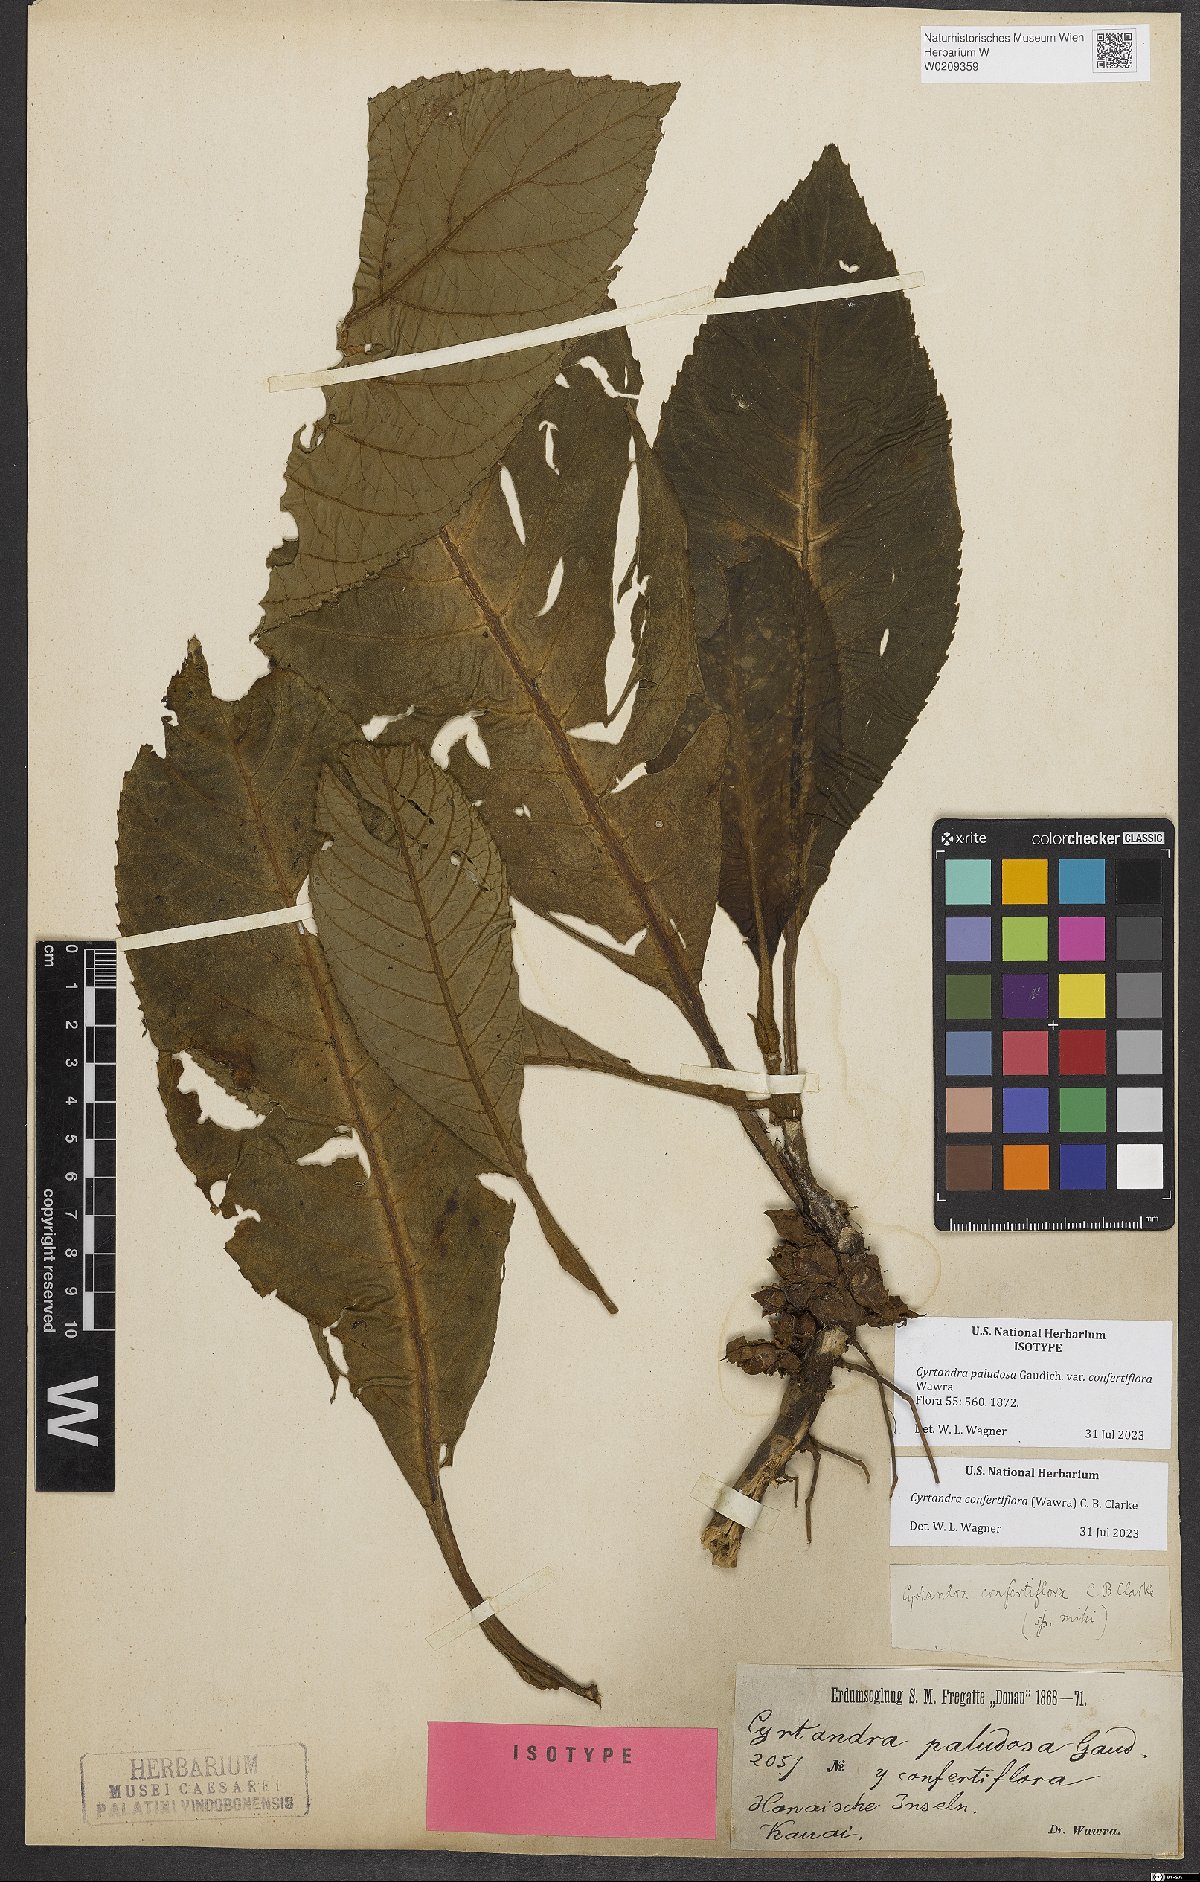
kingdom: Plantae
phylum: Tracheophyta
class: Magnoliopsida
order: Lamiales
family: Gesneriaceae
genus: Cyrtandra
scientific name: Cyrtandra confertiflora
